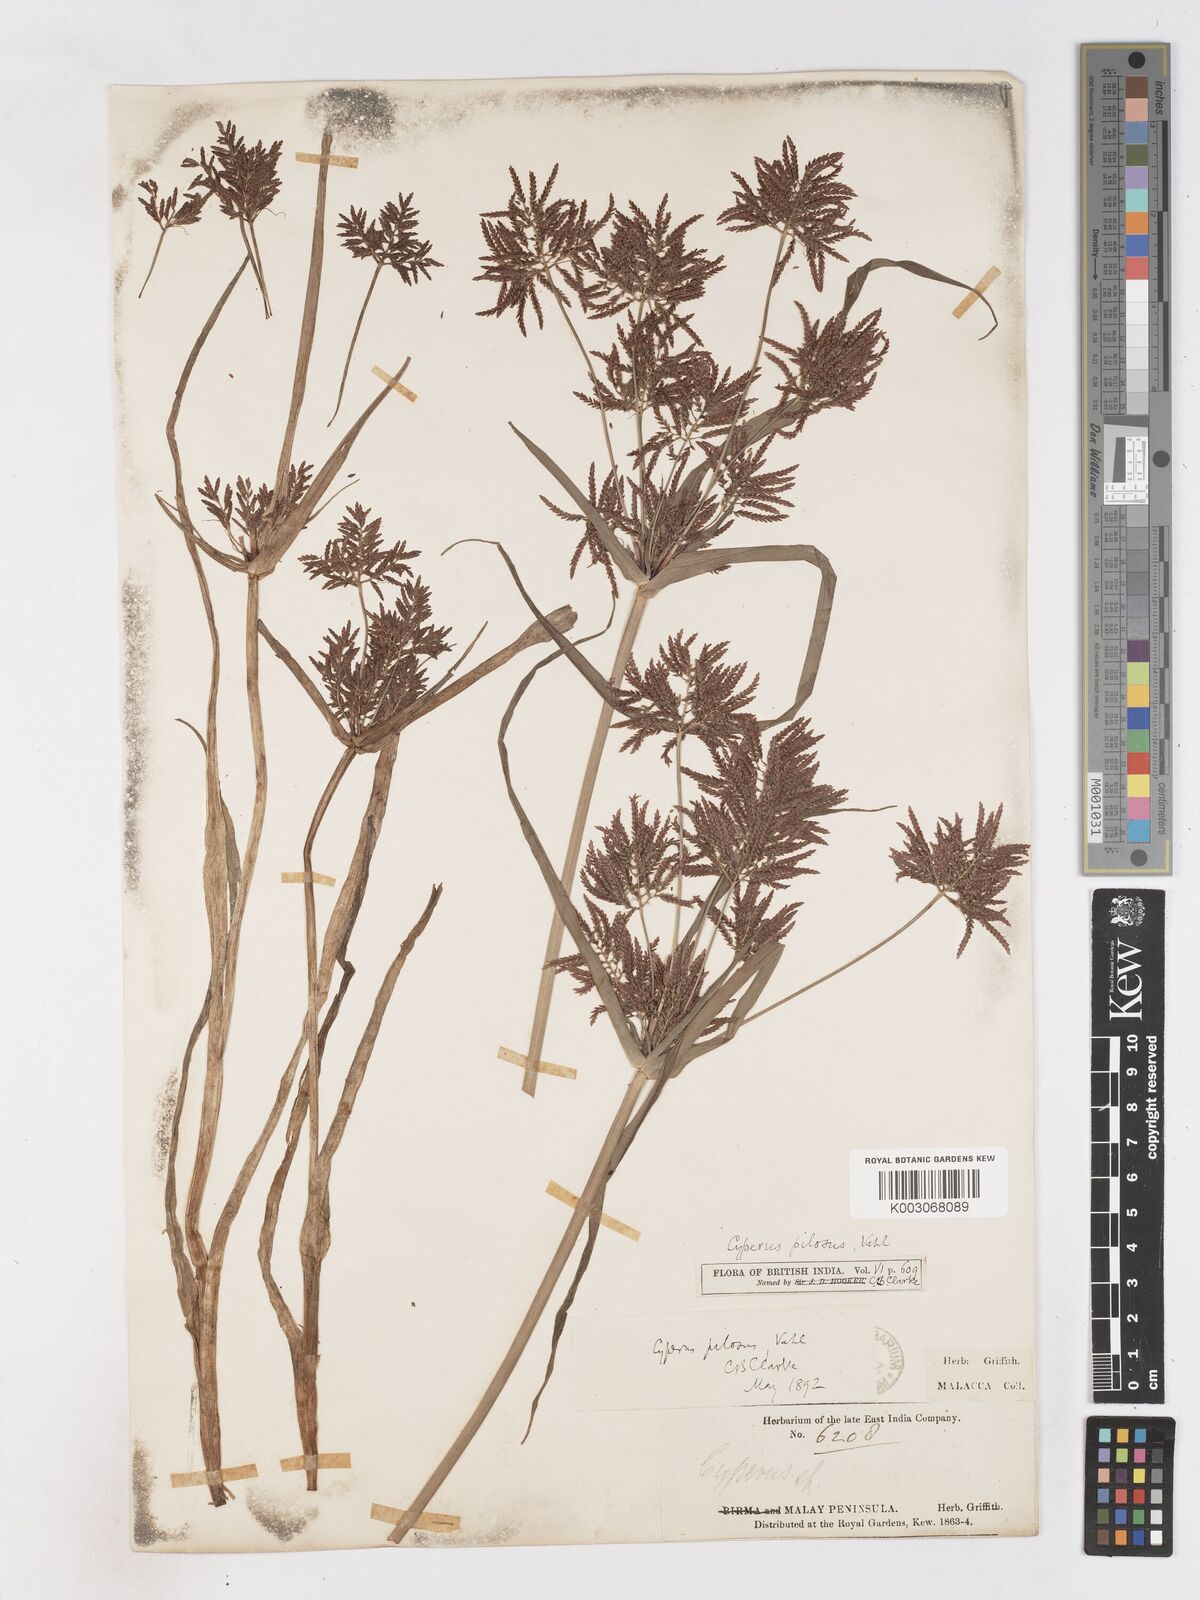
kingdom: Plantae
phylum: Tracheophyta
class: Liliopsida
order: Poales
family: Cyperaceae
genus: Cyperus
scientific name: Cyperus pilosus
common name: Fuzzy flatsedge
